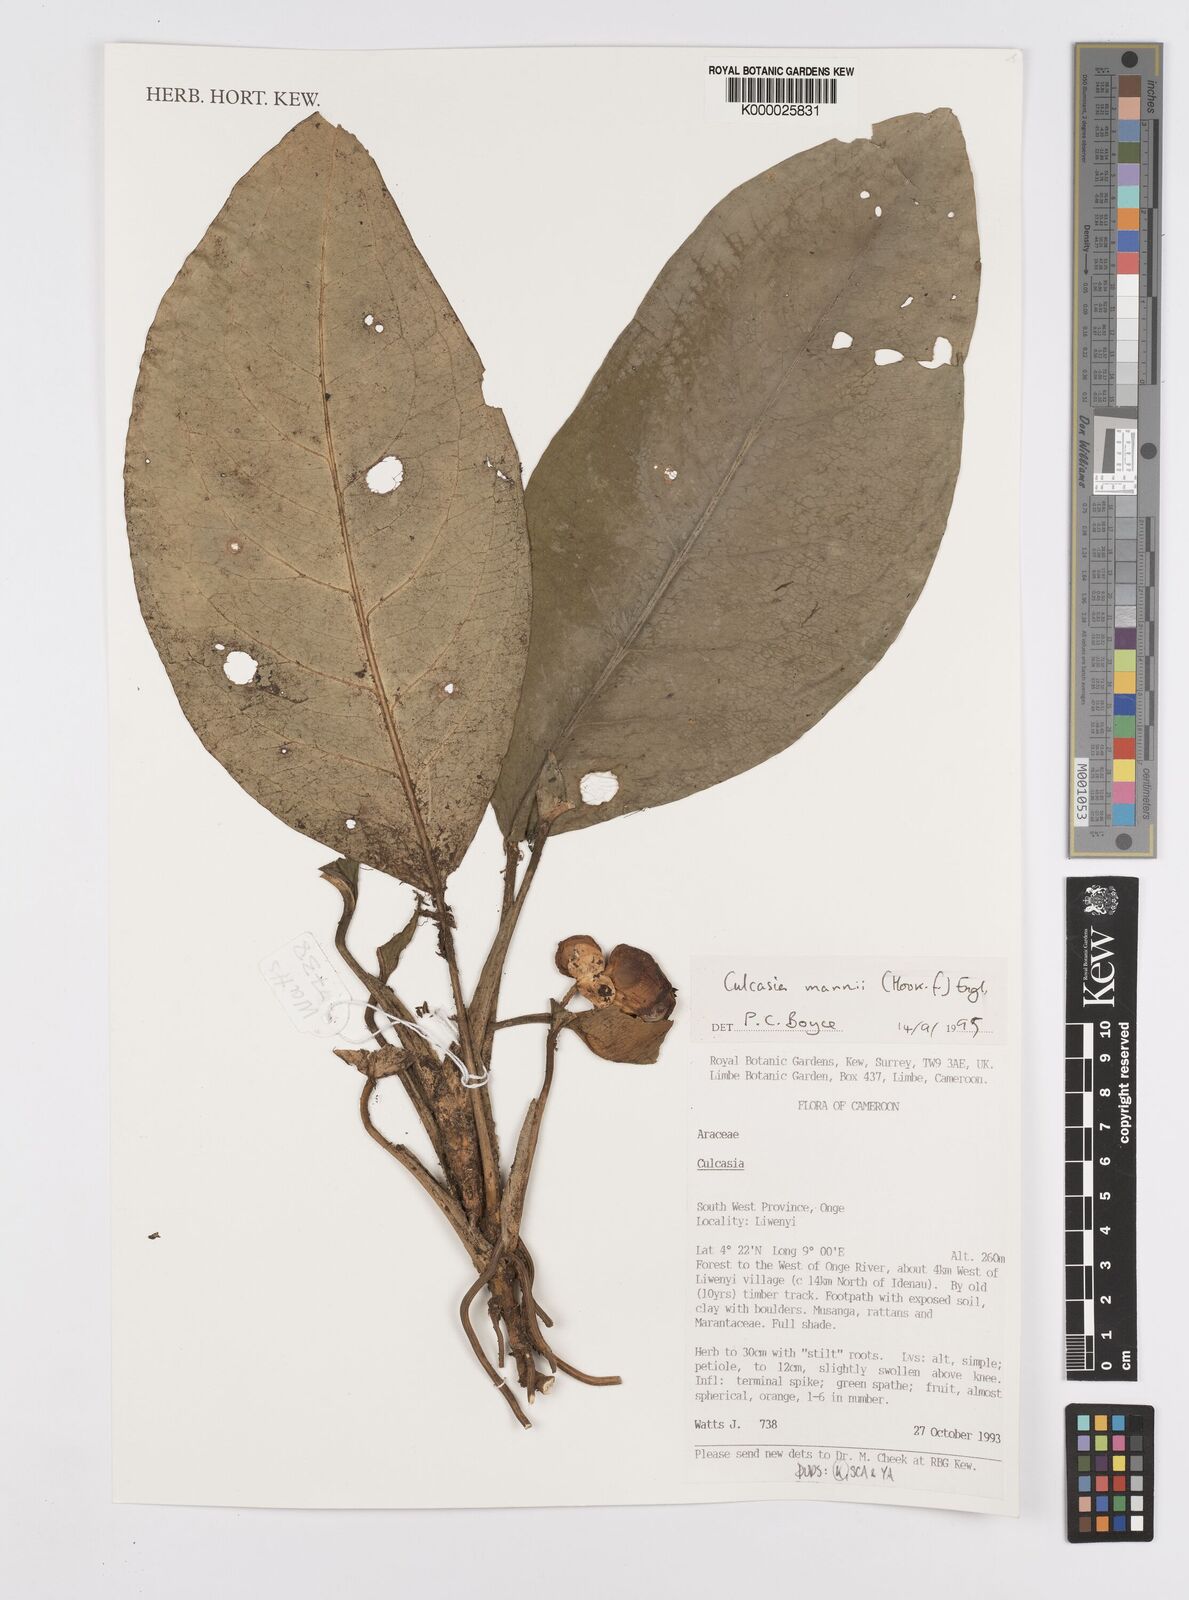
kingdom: Plantae
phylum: Tracheophyta
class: Liliopsida
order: Alismatales
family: Araceae
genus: Culcasia
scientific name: Culcasia mannii
